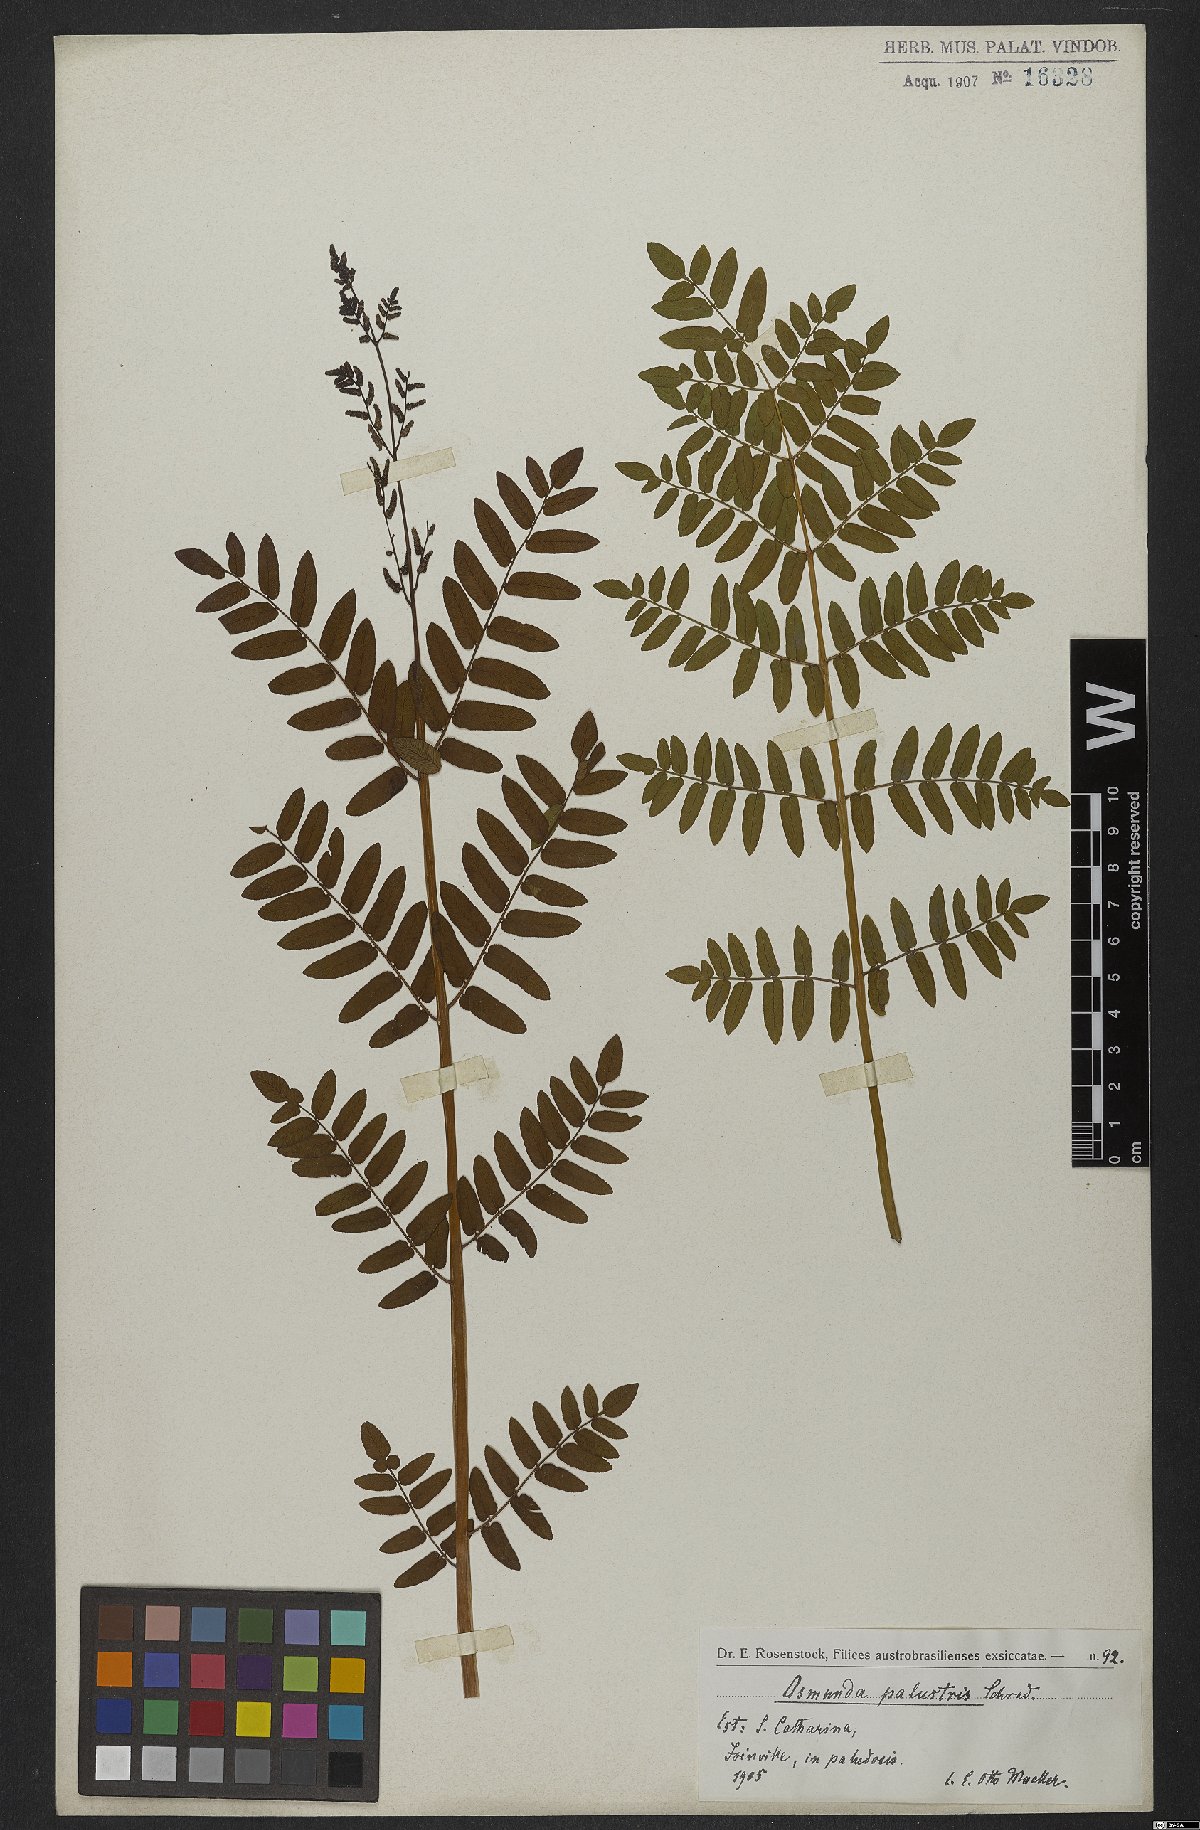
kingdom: Plantae
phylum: Tracheophyta
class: Polypodiopsida
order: Osmundales
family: Osmundaceae
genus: Osmunda
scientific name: Osmunda regalis
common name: Royal fern
